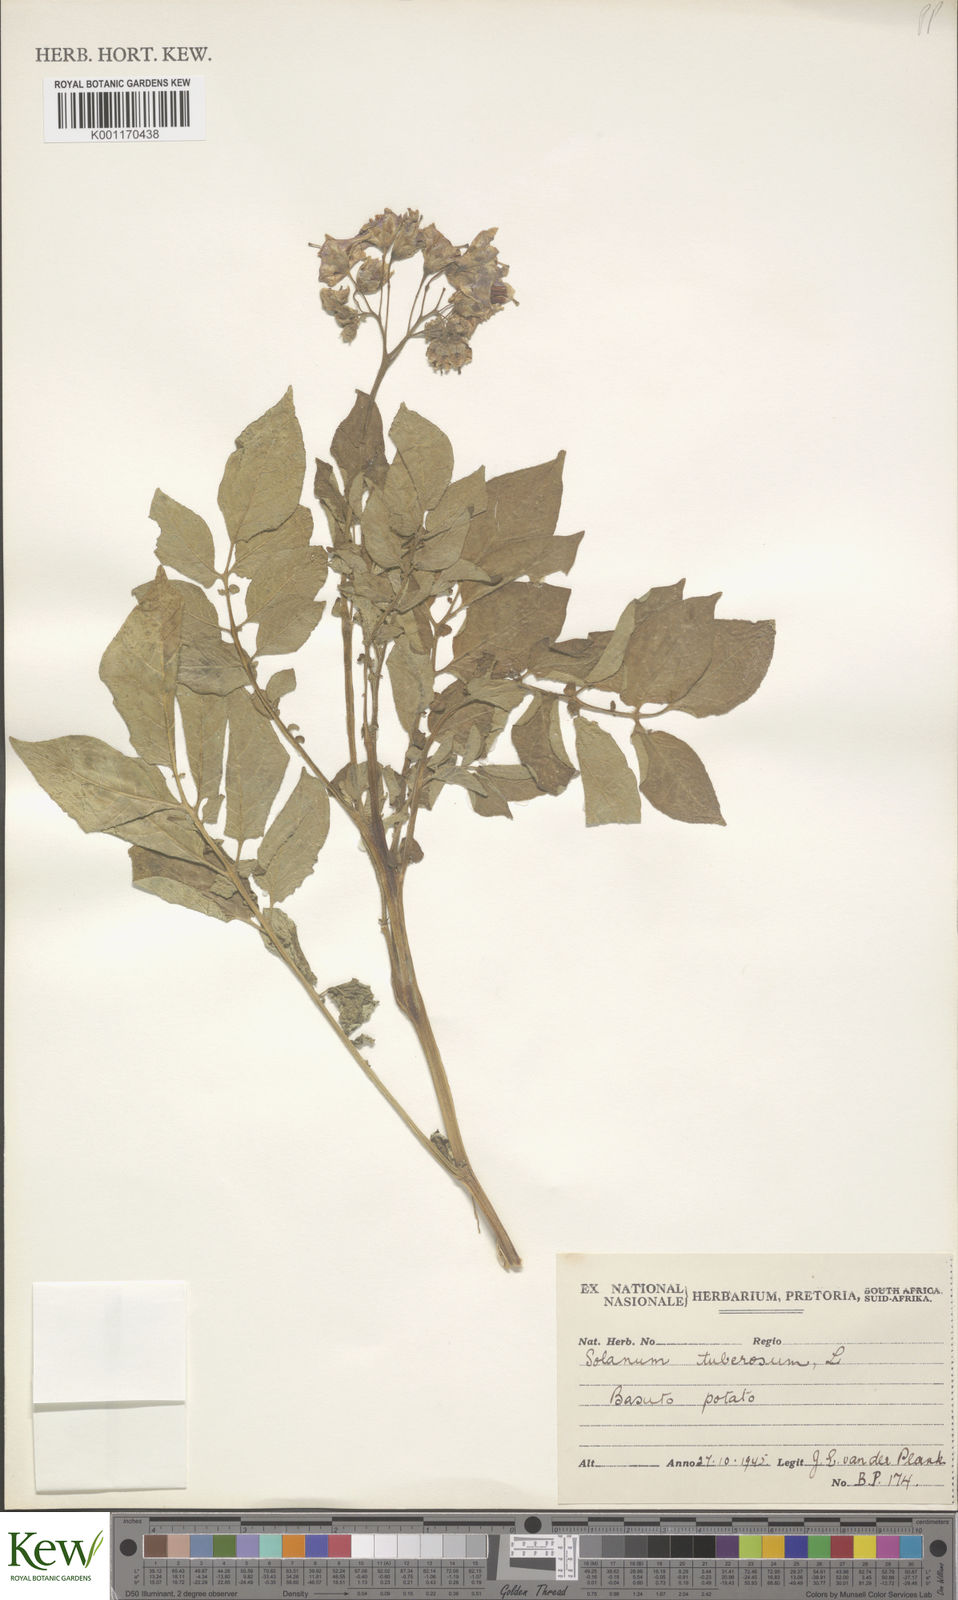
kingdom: Plantae
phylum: Tracheophyta
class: Magnoliopsida
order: Solanales
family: Solanaceae
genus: Solanum
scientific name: Solanum tuberosum
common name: Potato
